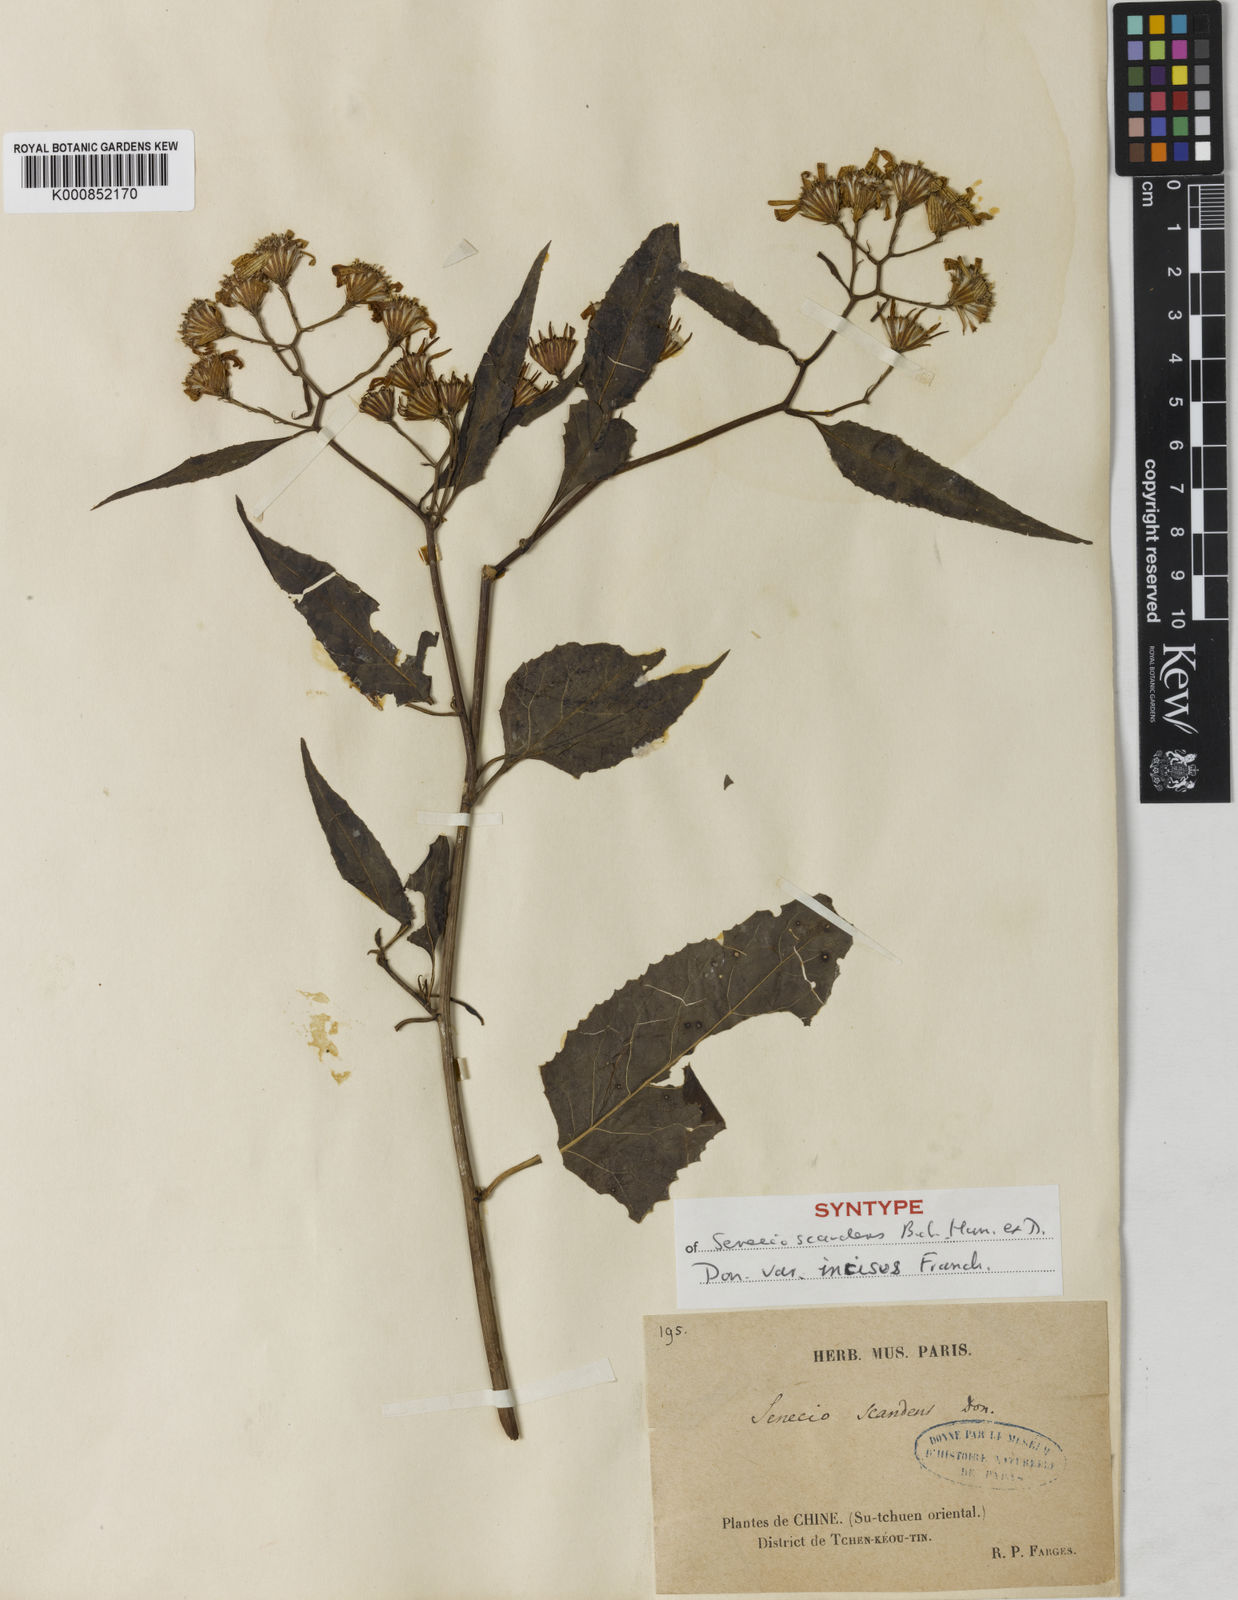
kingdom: Plantae
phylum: Tracheophyta
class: Magnoliopsida
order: Asterales
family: Asteraceae
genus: Senecio
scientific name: Senecio scandens
